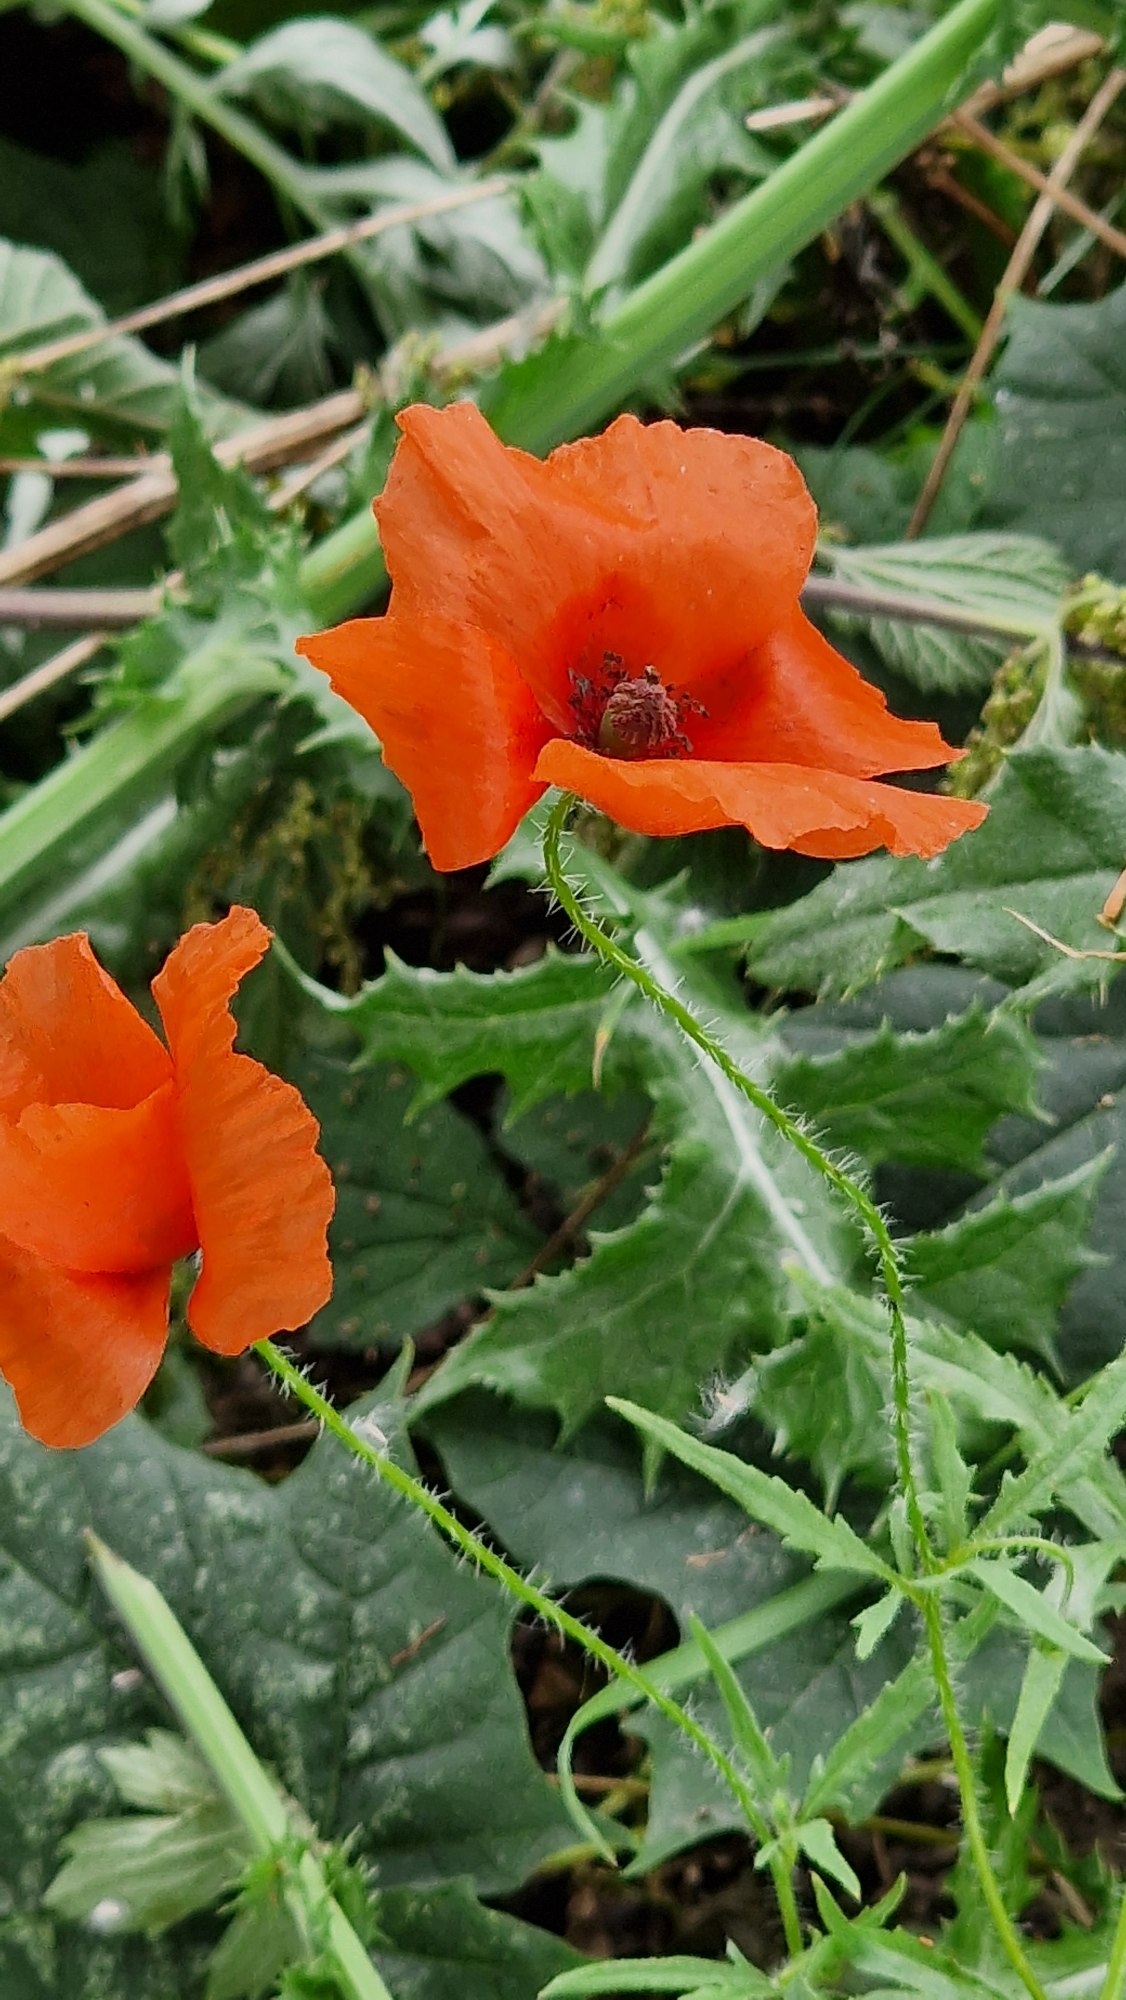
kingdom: Plantae
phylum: Tracheophyta
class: Magnoliopsida
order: Ranunculales
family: Papaveraceae
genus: Papaver
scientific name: Papaver rhoeas
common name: Korn-valmue
